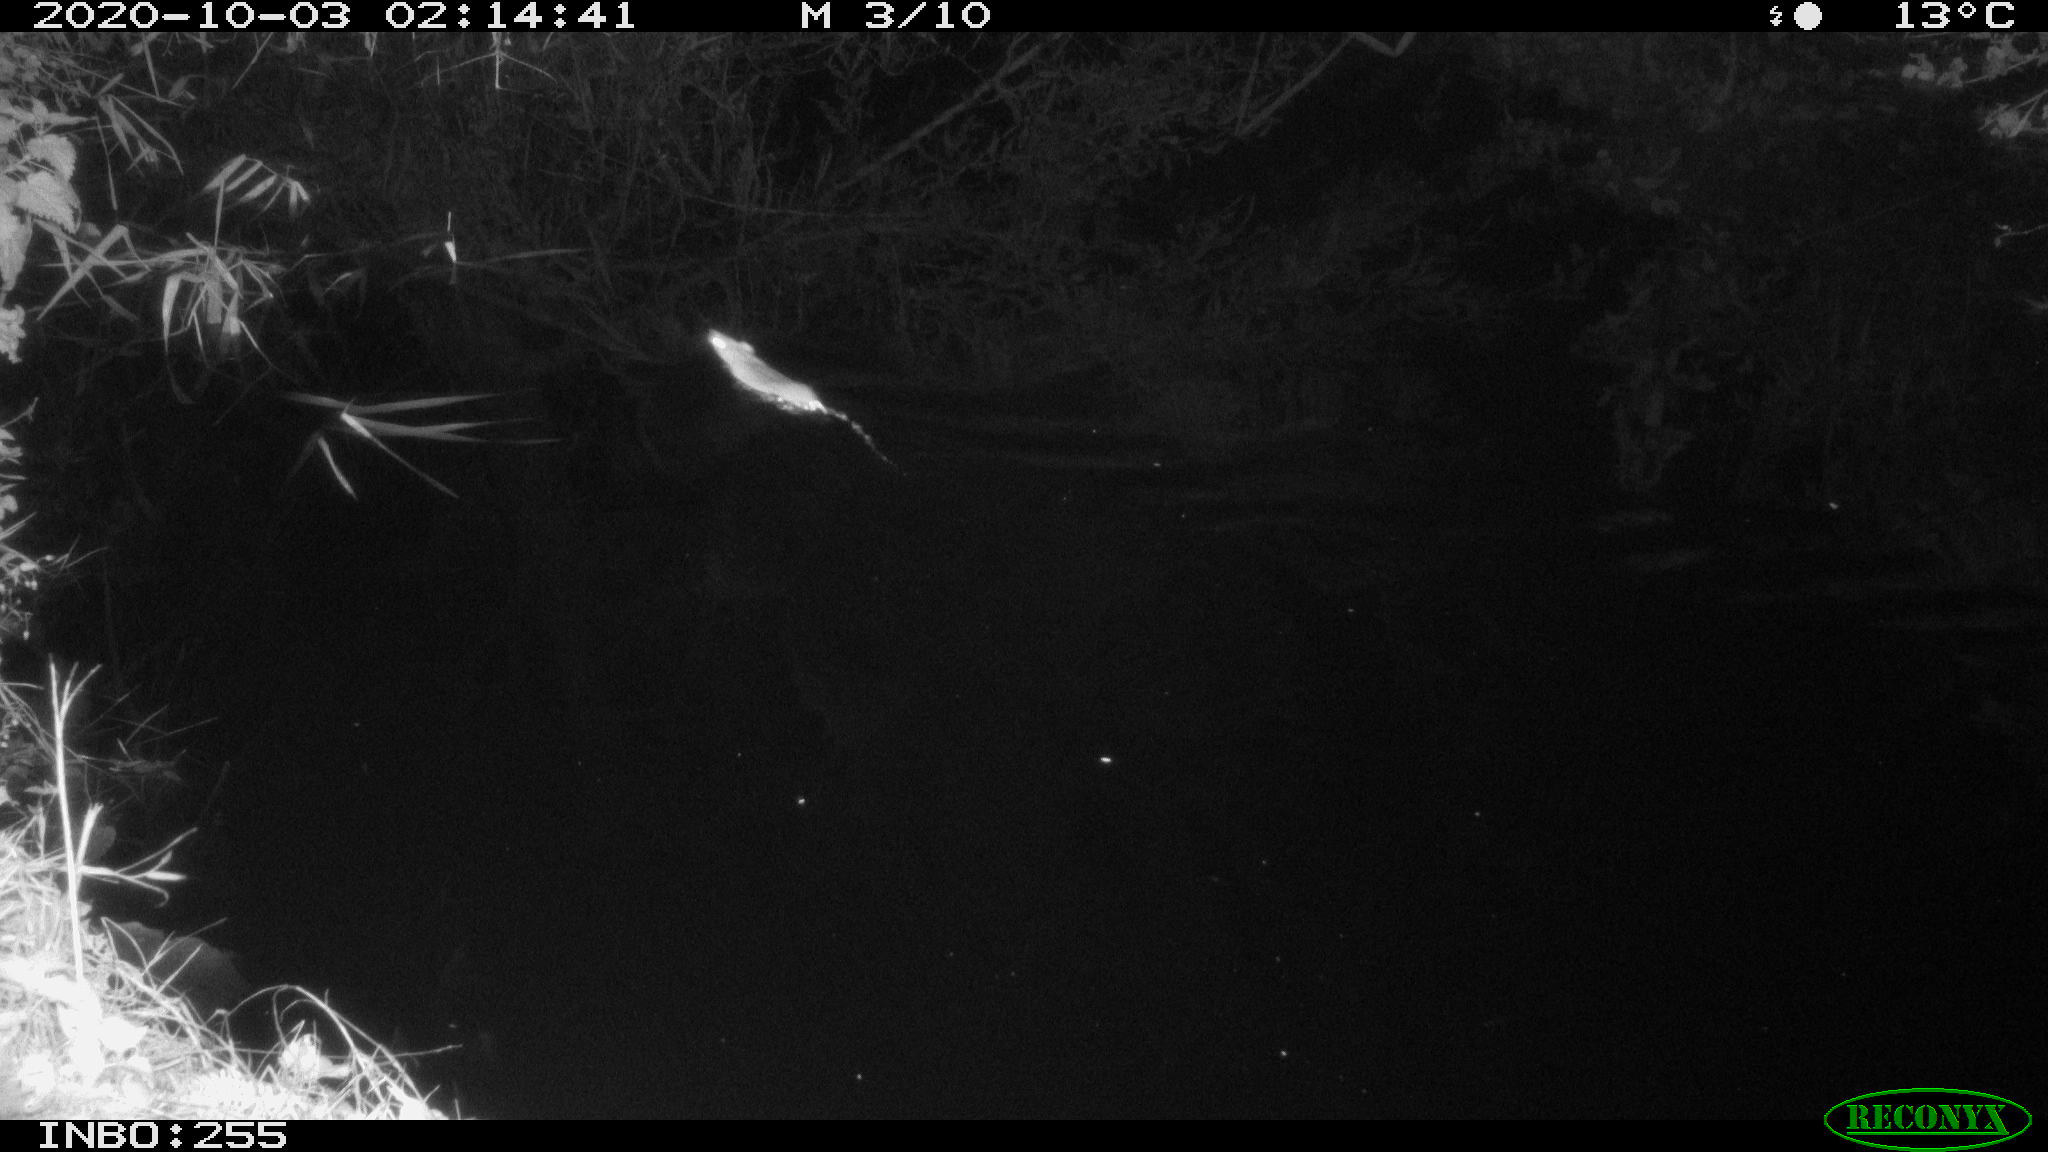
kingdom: Animalia
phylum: Chordata
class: Mammalia
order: Rodentia
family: Muridae
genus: Rattus
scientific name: Rattus norvegicus
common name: Brown rat
